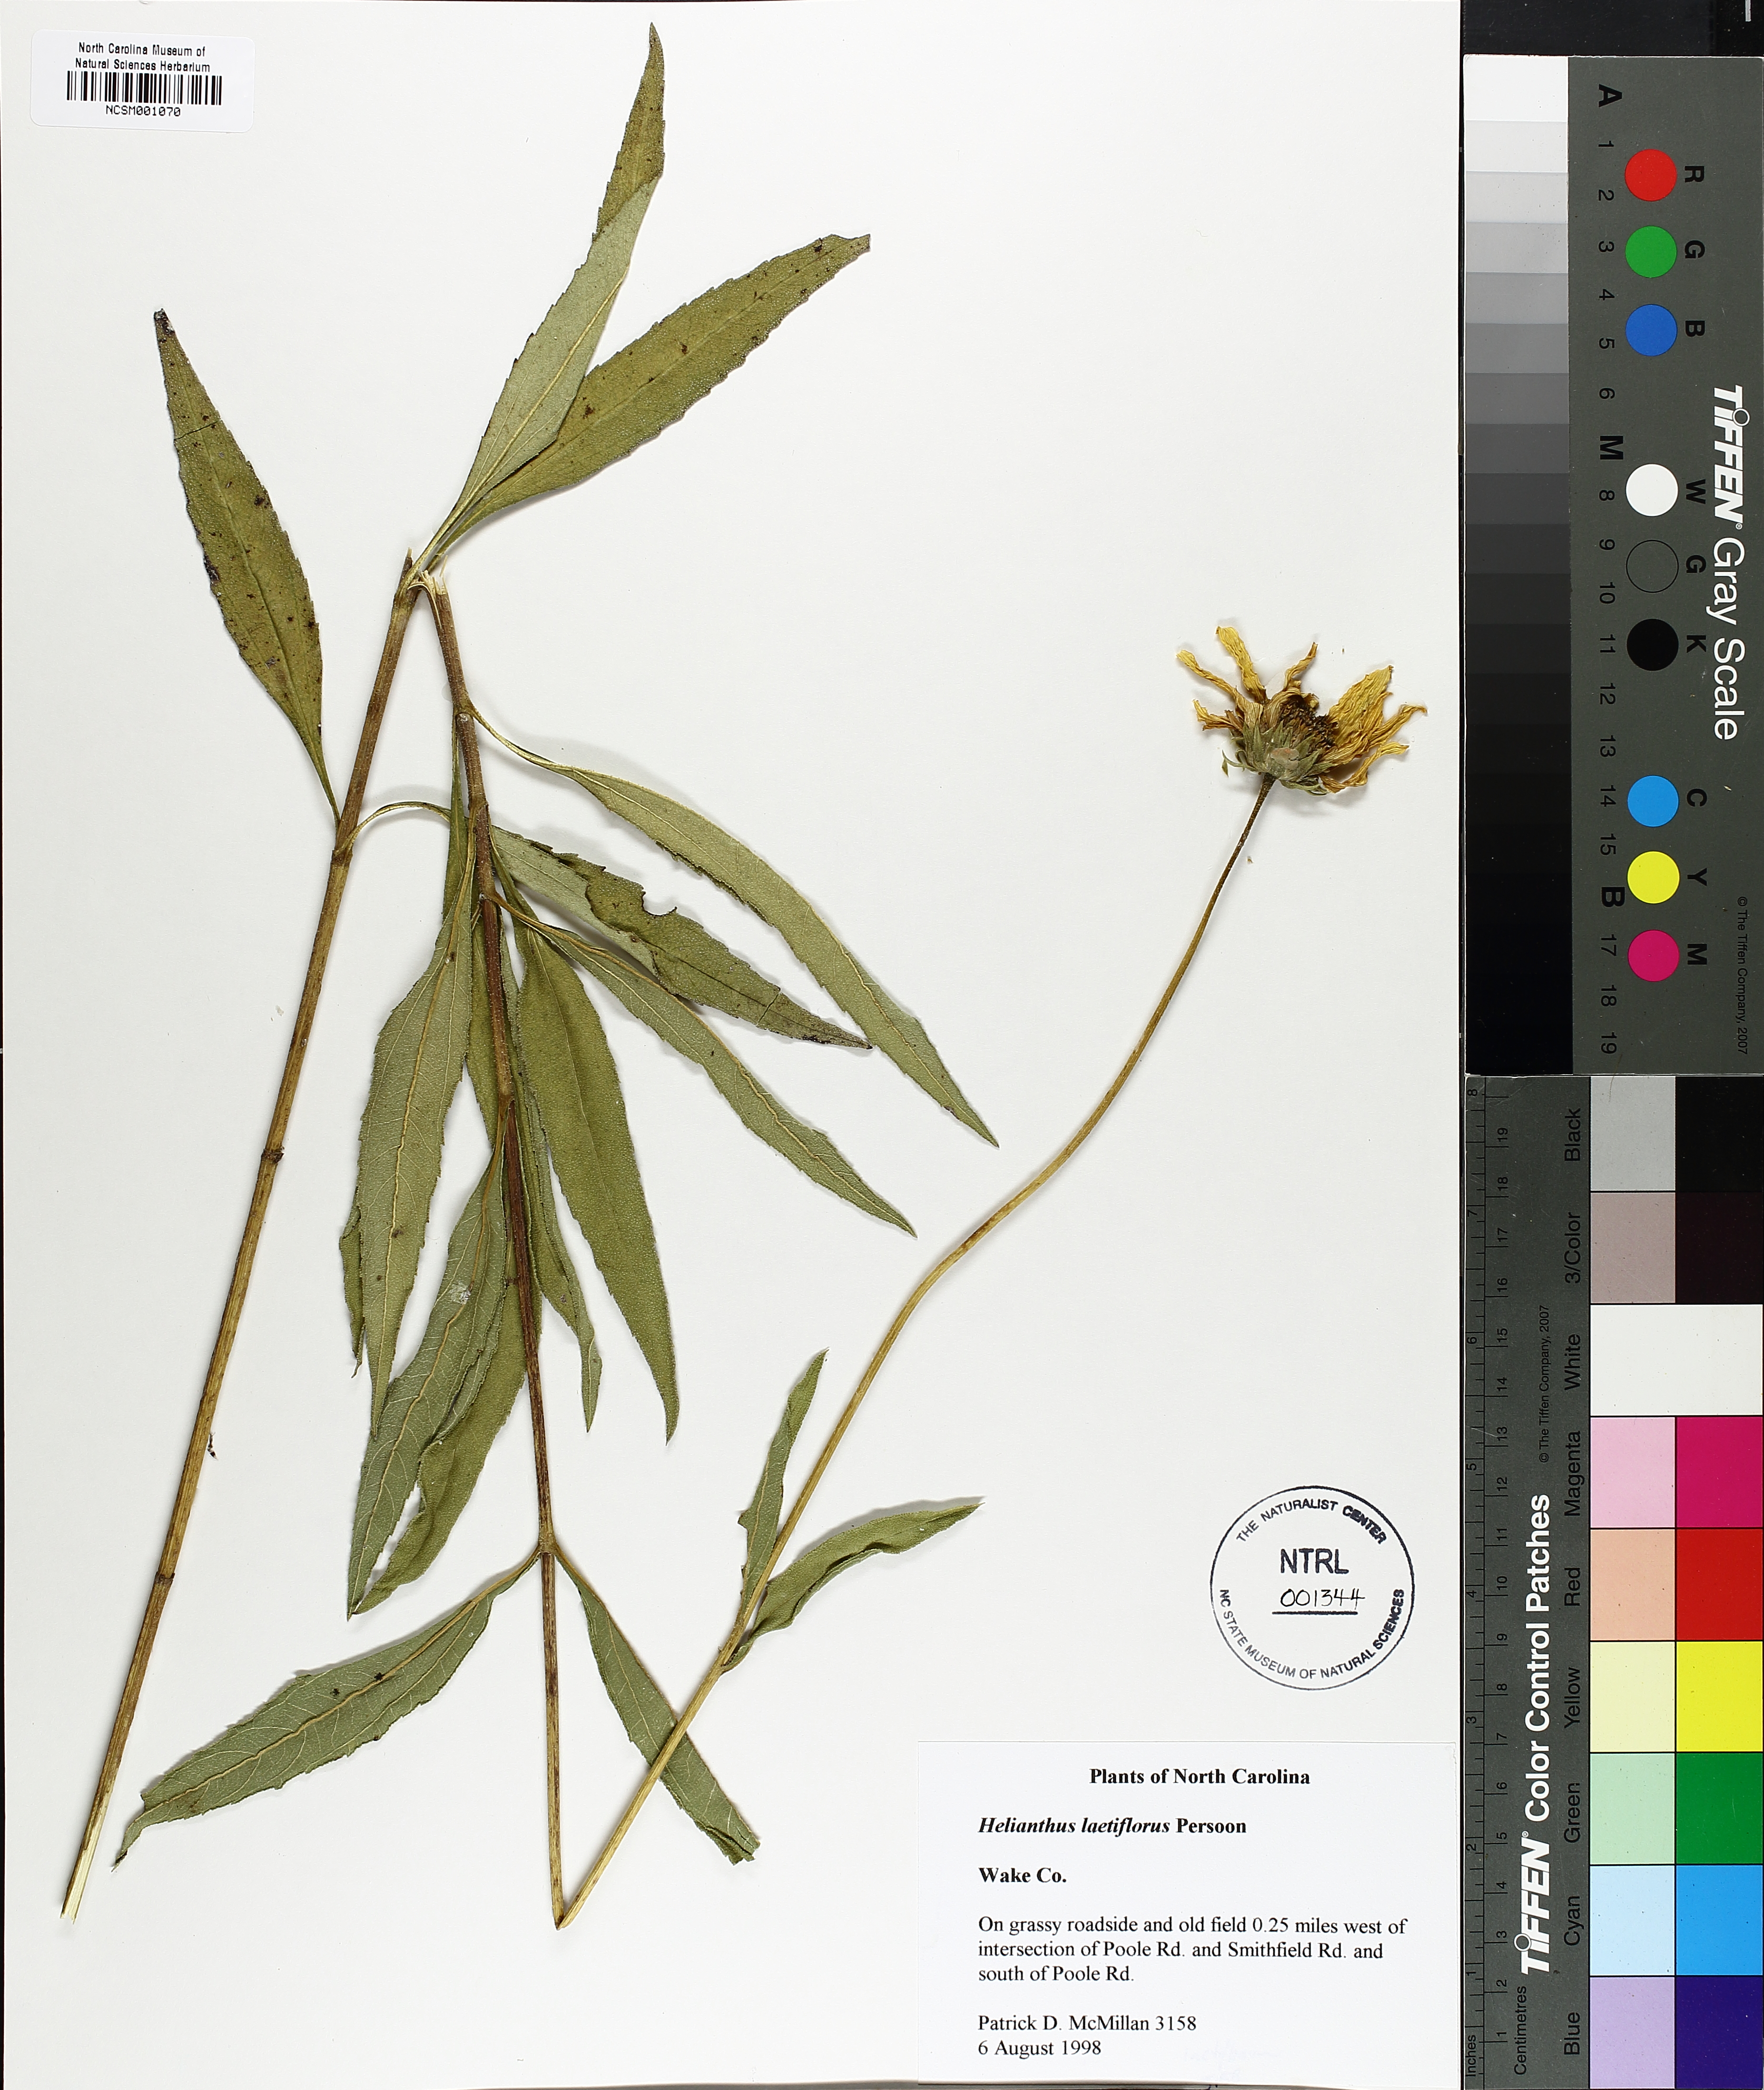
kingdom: Plantae
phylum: Tracheophyta
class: Magnoliopsida
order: Asterales
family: Asteraceae
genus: Helianthus
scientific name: Helianthus laetiflorus
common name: Perennial sunflower
